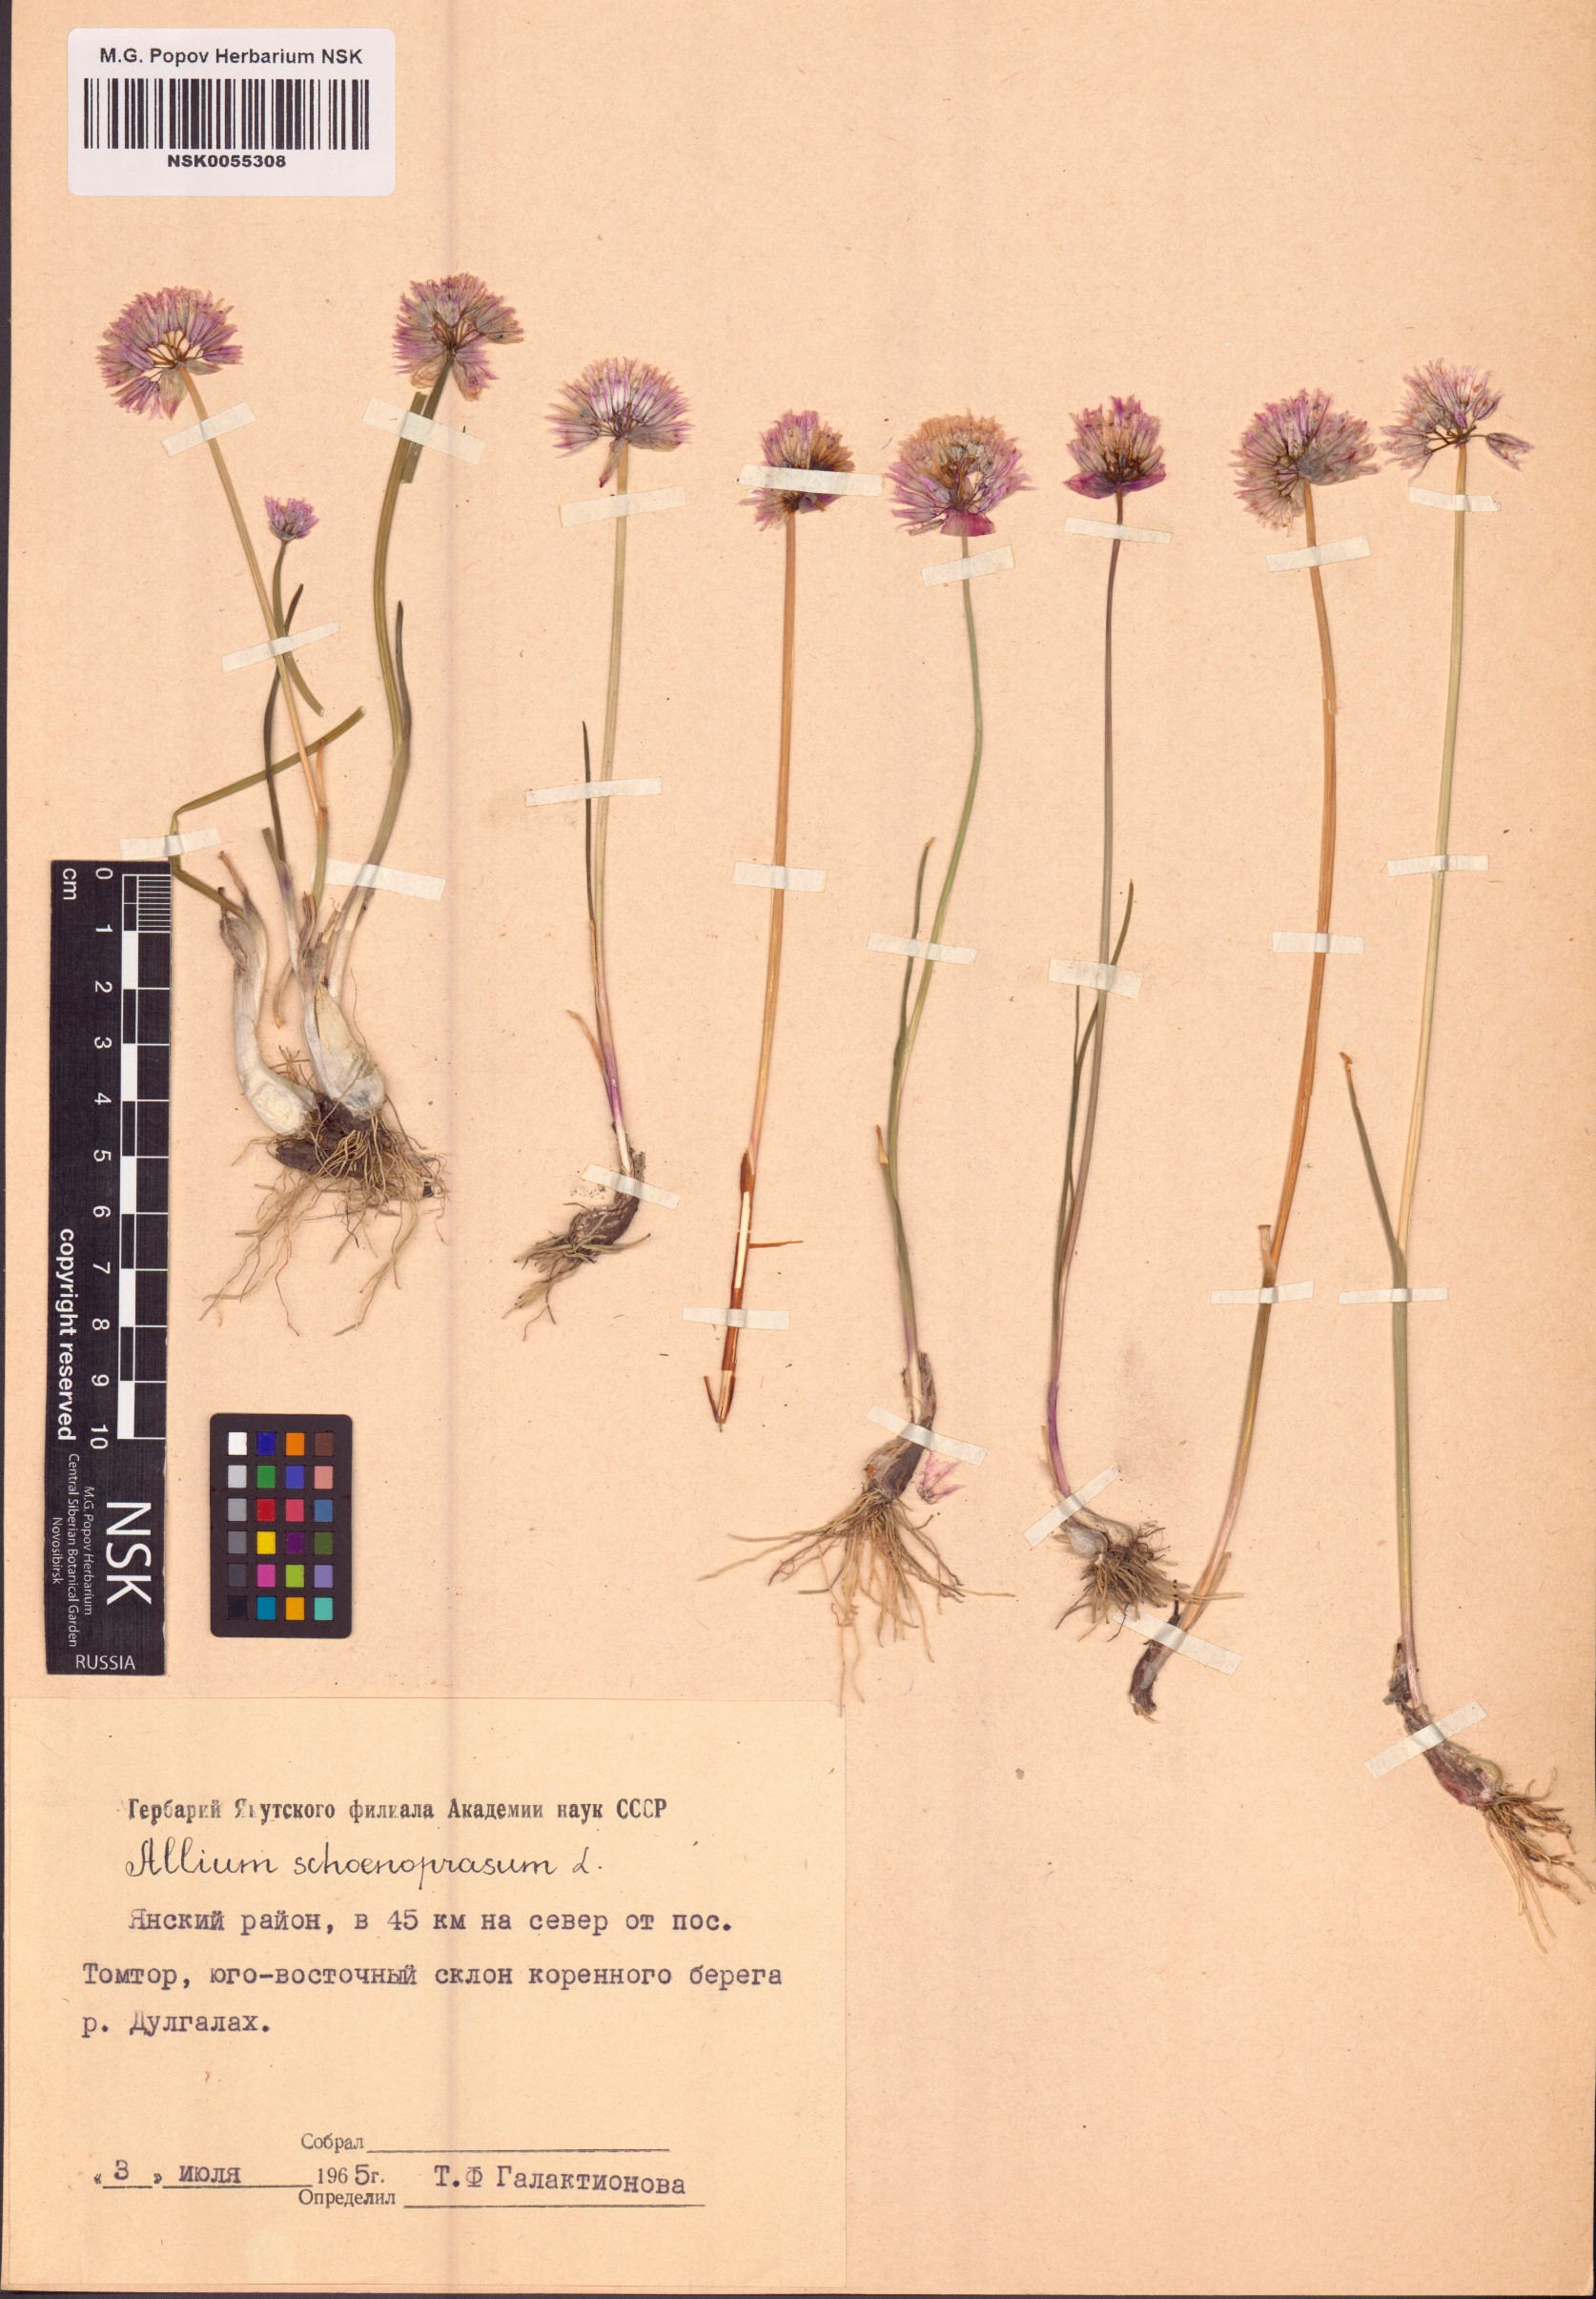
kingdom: Plantae
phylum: Tracheophyta
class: Liliopsida
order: Asparagales
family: Amaryllidaceae
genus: Allium
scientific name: Allium schoenoprasum
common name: Chives
